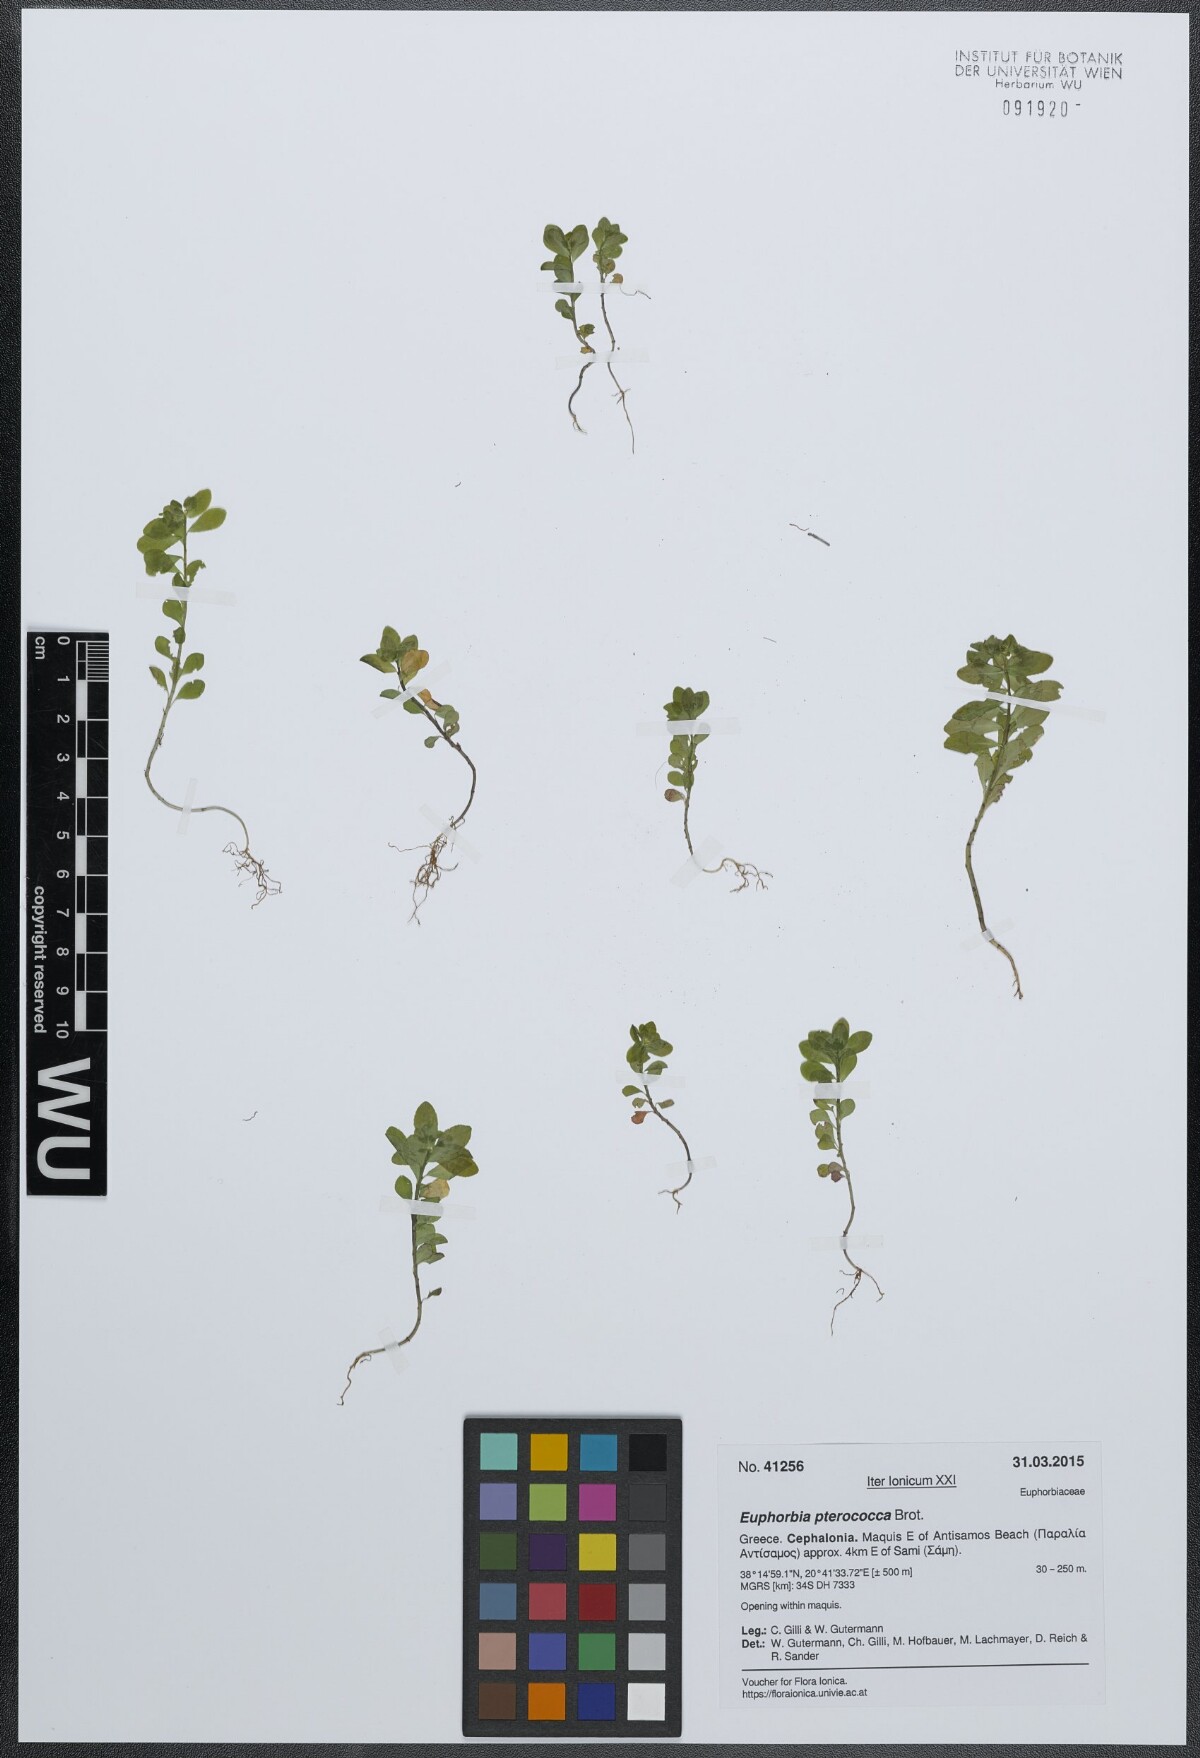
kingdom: Plantae
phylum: Tracheophyta
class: Magnoliopsida
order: Malpighiales
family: Euphorbiaceae
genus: Euphorbia
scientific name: Euphorbia pterococca
